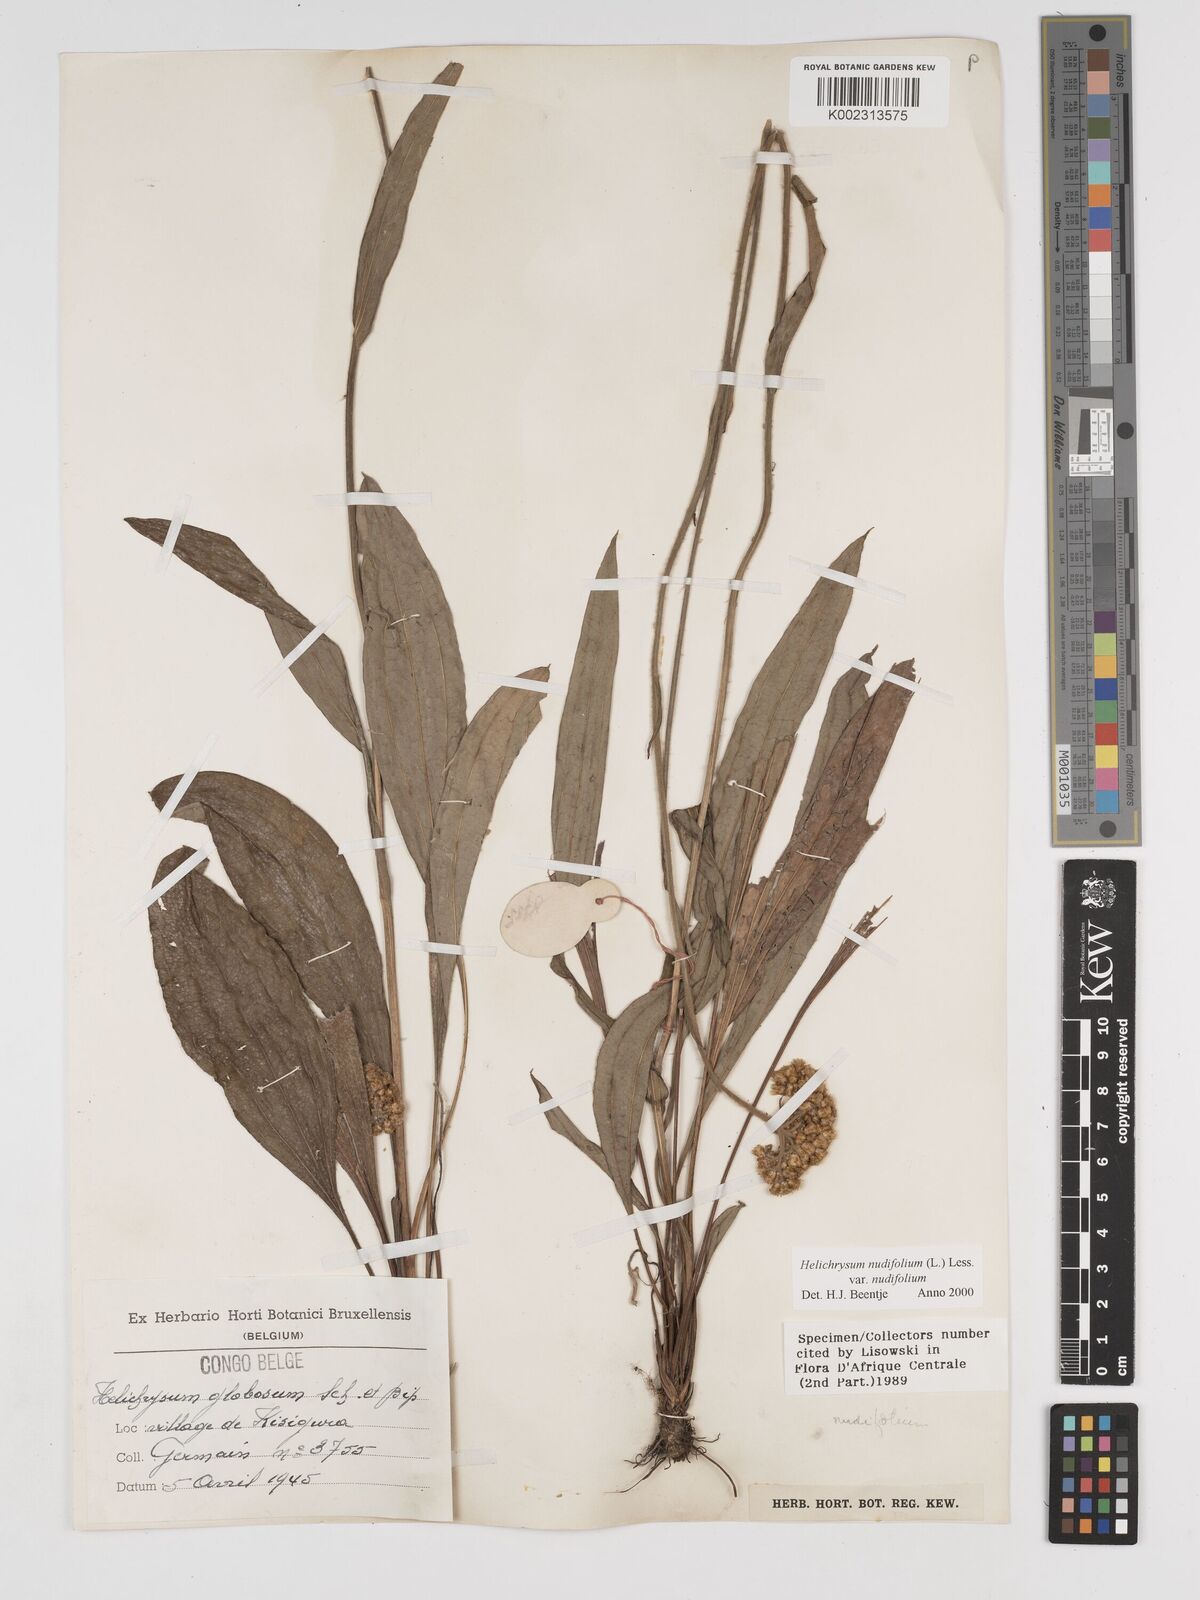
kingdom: Plantae
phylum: Tracheophyta
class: Magnoliopsida
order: Asterales
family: Asteraceae
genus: Helichrysum
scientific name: Helichrysum nudifolium
